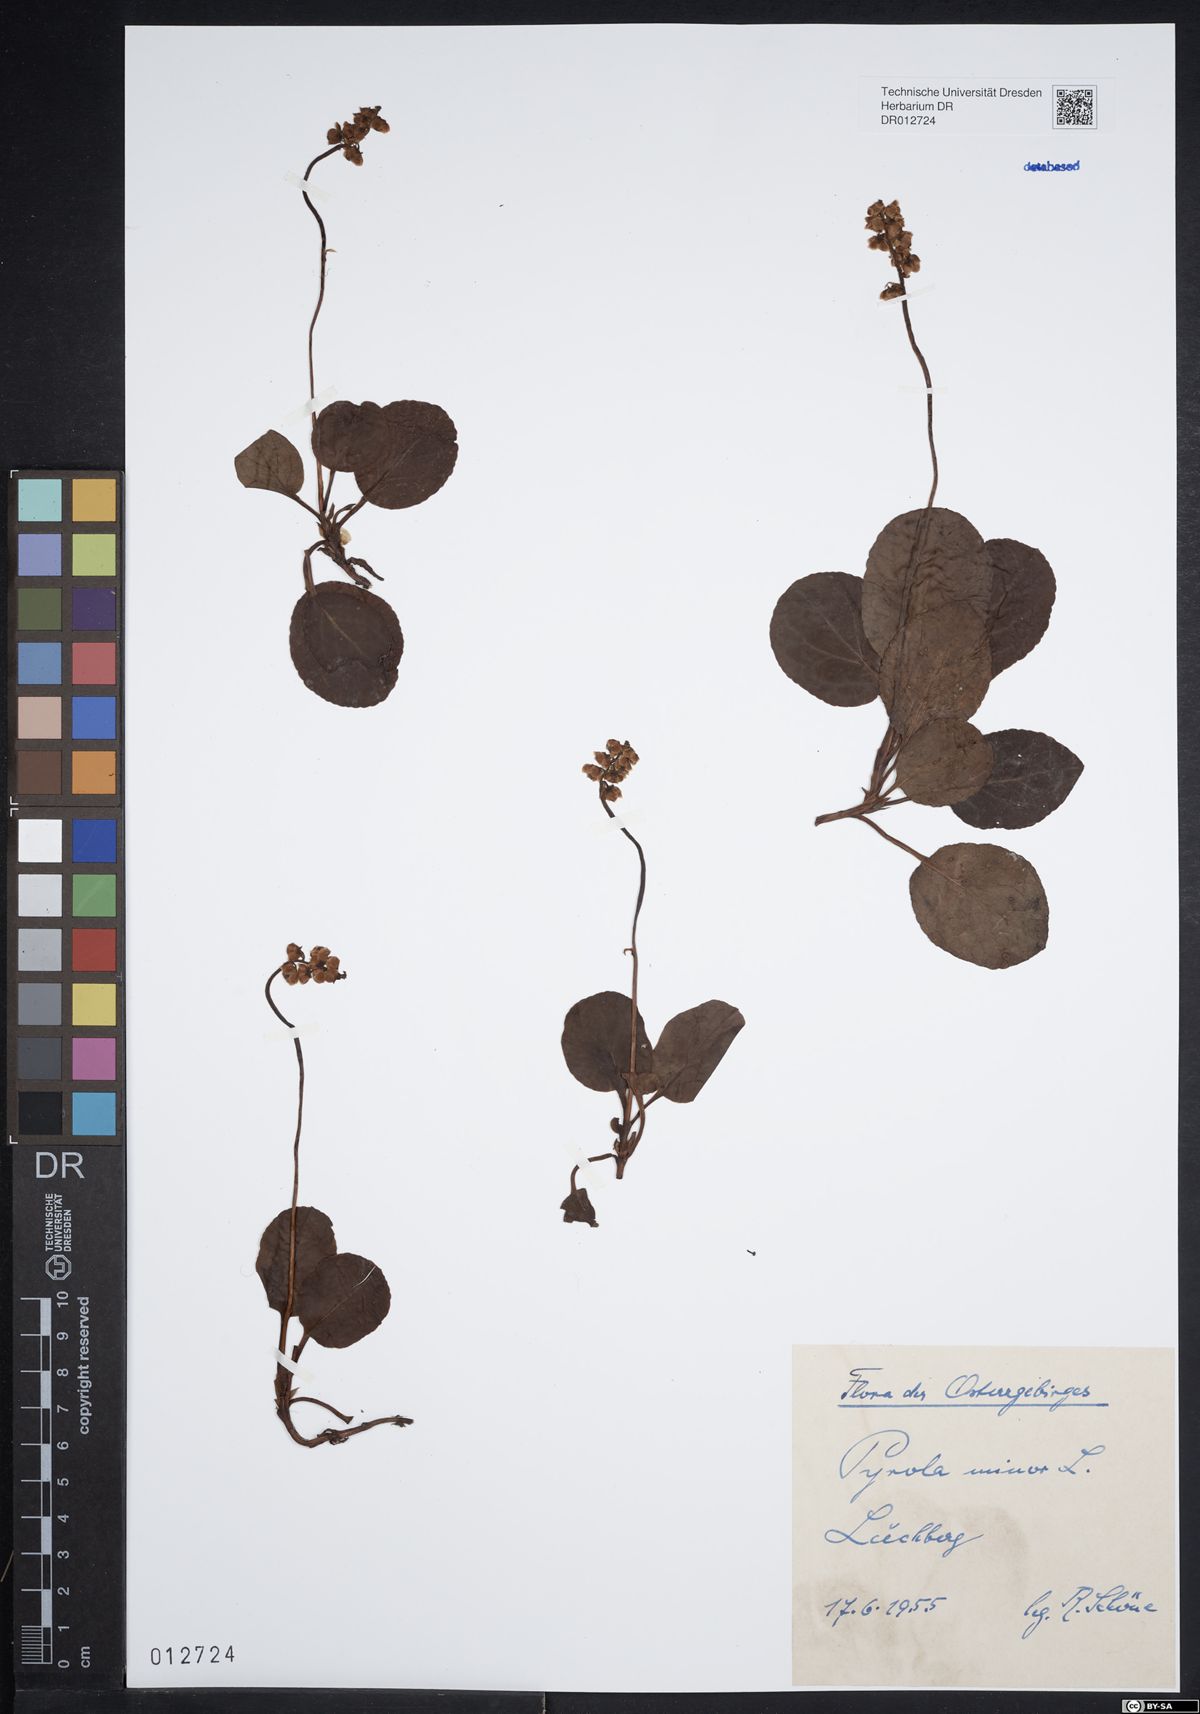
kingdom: Plantae
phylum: Tracheophyta
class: Magnoliopsida
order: Ericales
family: Ericaceae
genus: Pyrola
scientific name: Pyrola minor
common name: Common wintergreen
